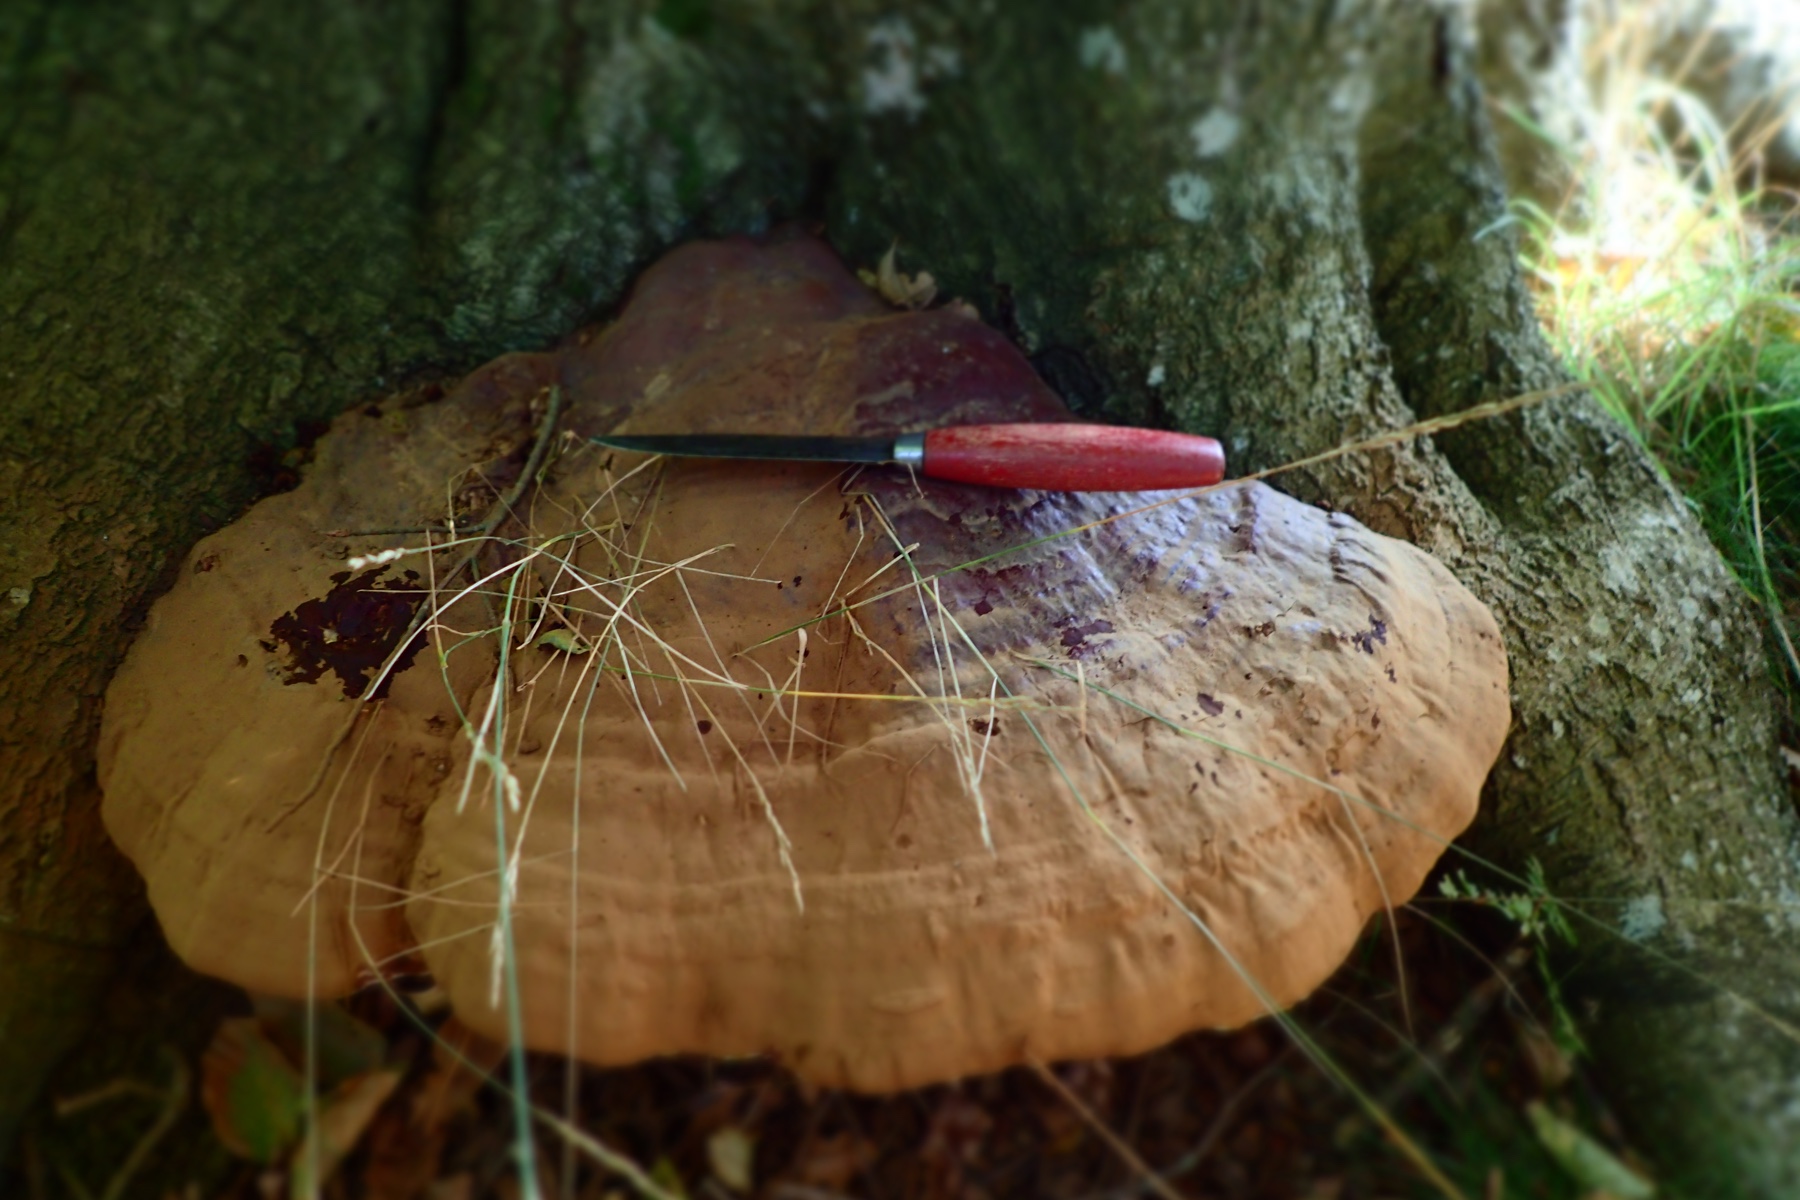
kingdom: Fungi
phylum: Basidiomycota
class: Agaricomycetes
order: Polyporales
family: Polyporaceae
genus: Ganoderma
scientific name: Ganoderma resinaceum
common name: gyldenbrun lakporesvamp
